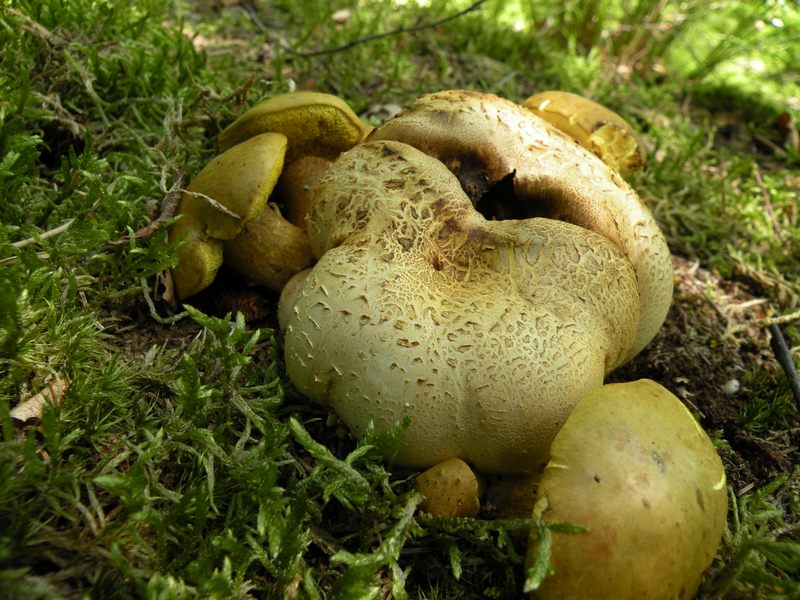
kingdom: Fungi
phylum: Basidiomycota
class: Agaricomycetes
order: Boletales
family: Boletaceae
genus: Pseudoboletus
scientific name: Pseudoboletus parasiticus
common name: snyltende rørhat
